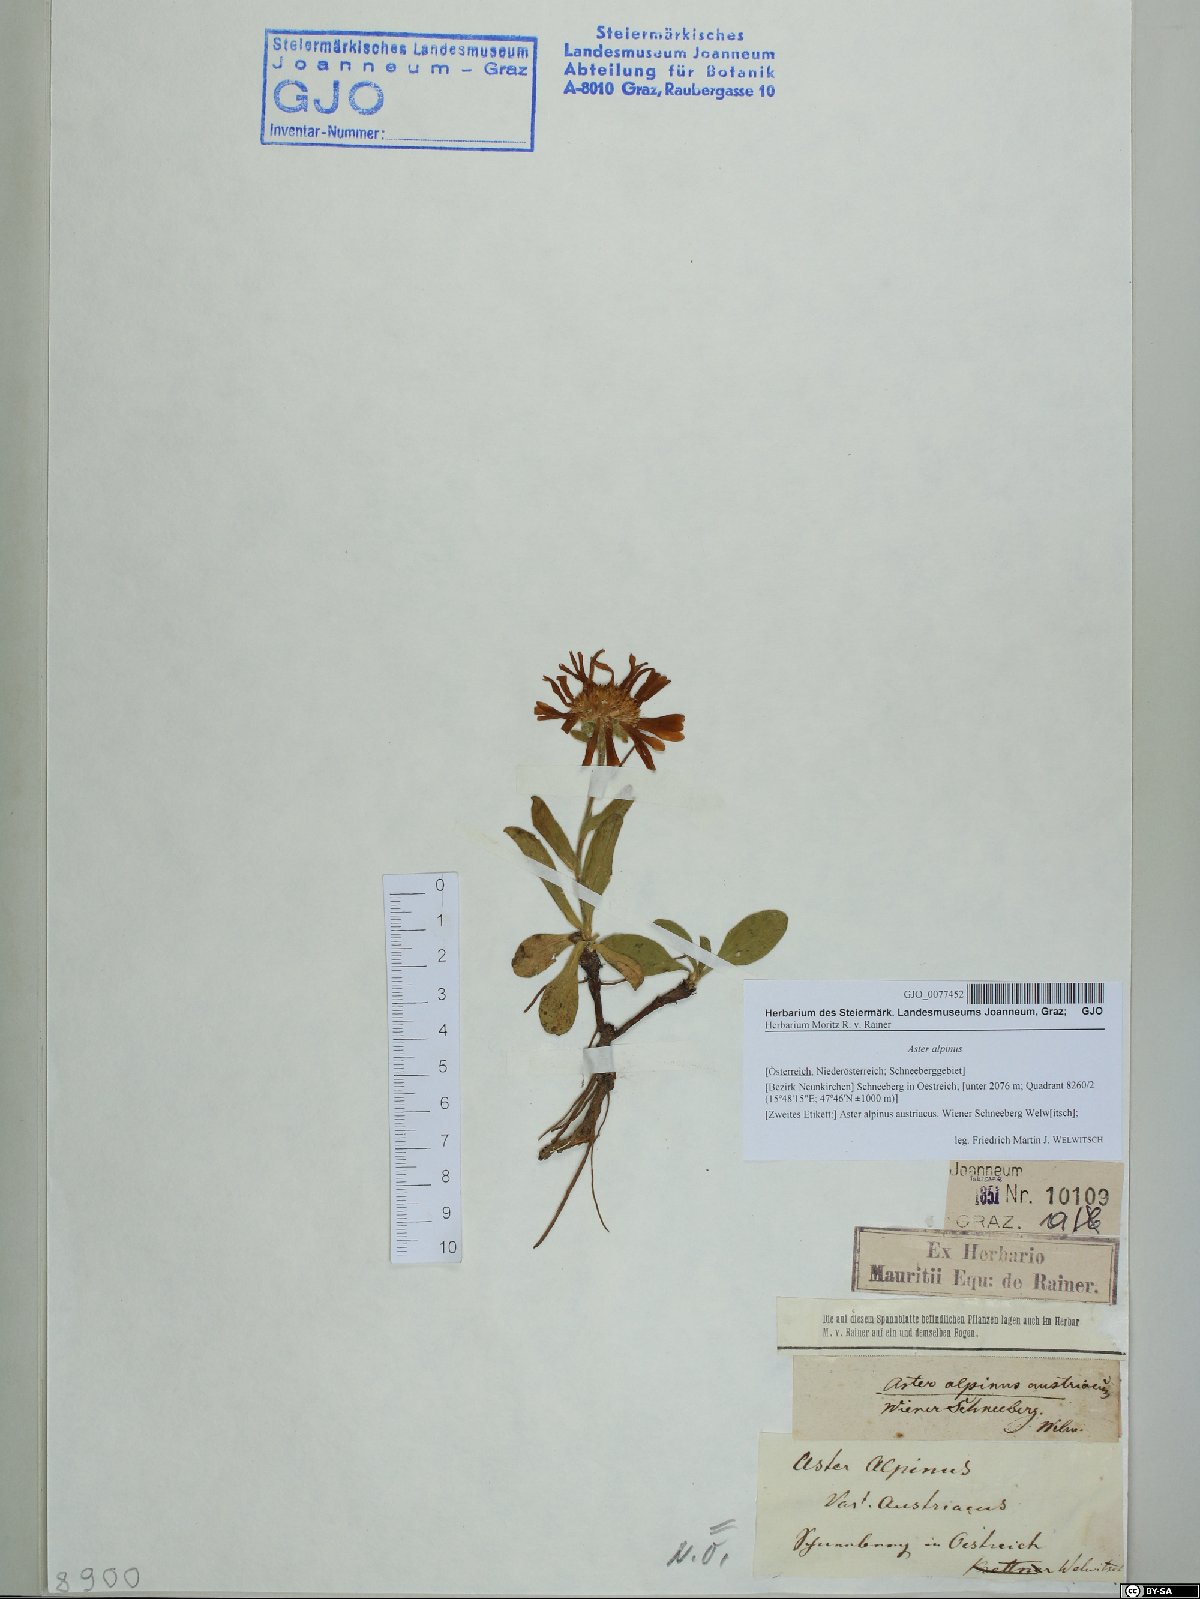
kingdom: Plantae
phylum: Tracheophyta
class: Magnoliopsida
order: Asterales
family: Asteraceae
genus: Aster
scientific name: Aster alpinus
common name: Alpine aster
